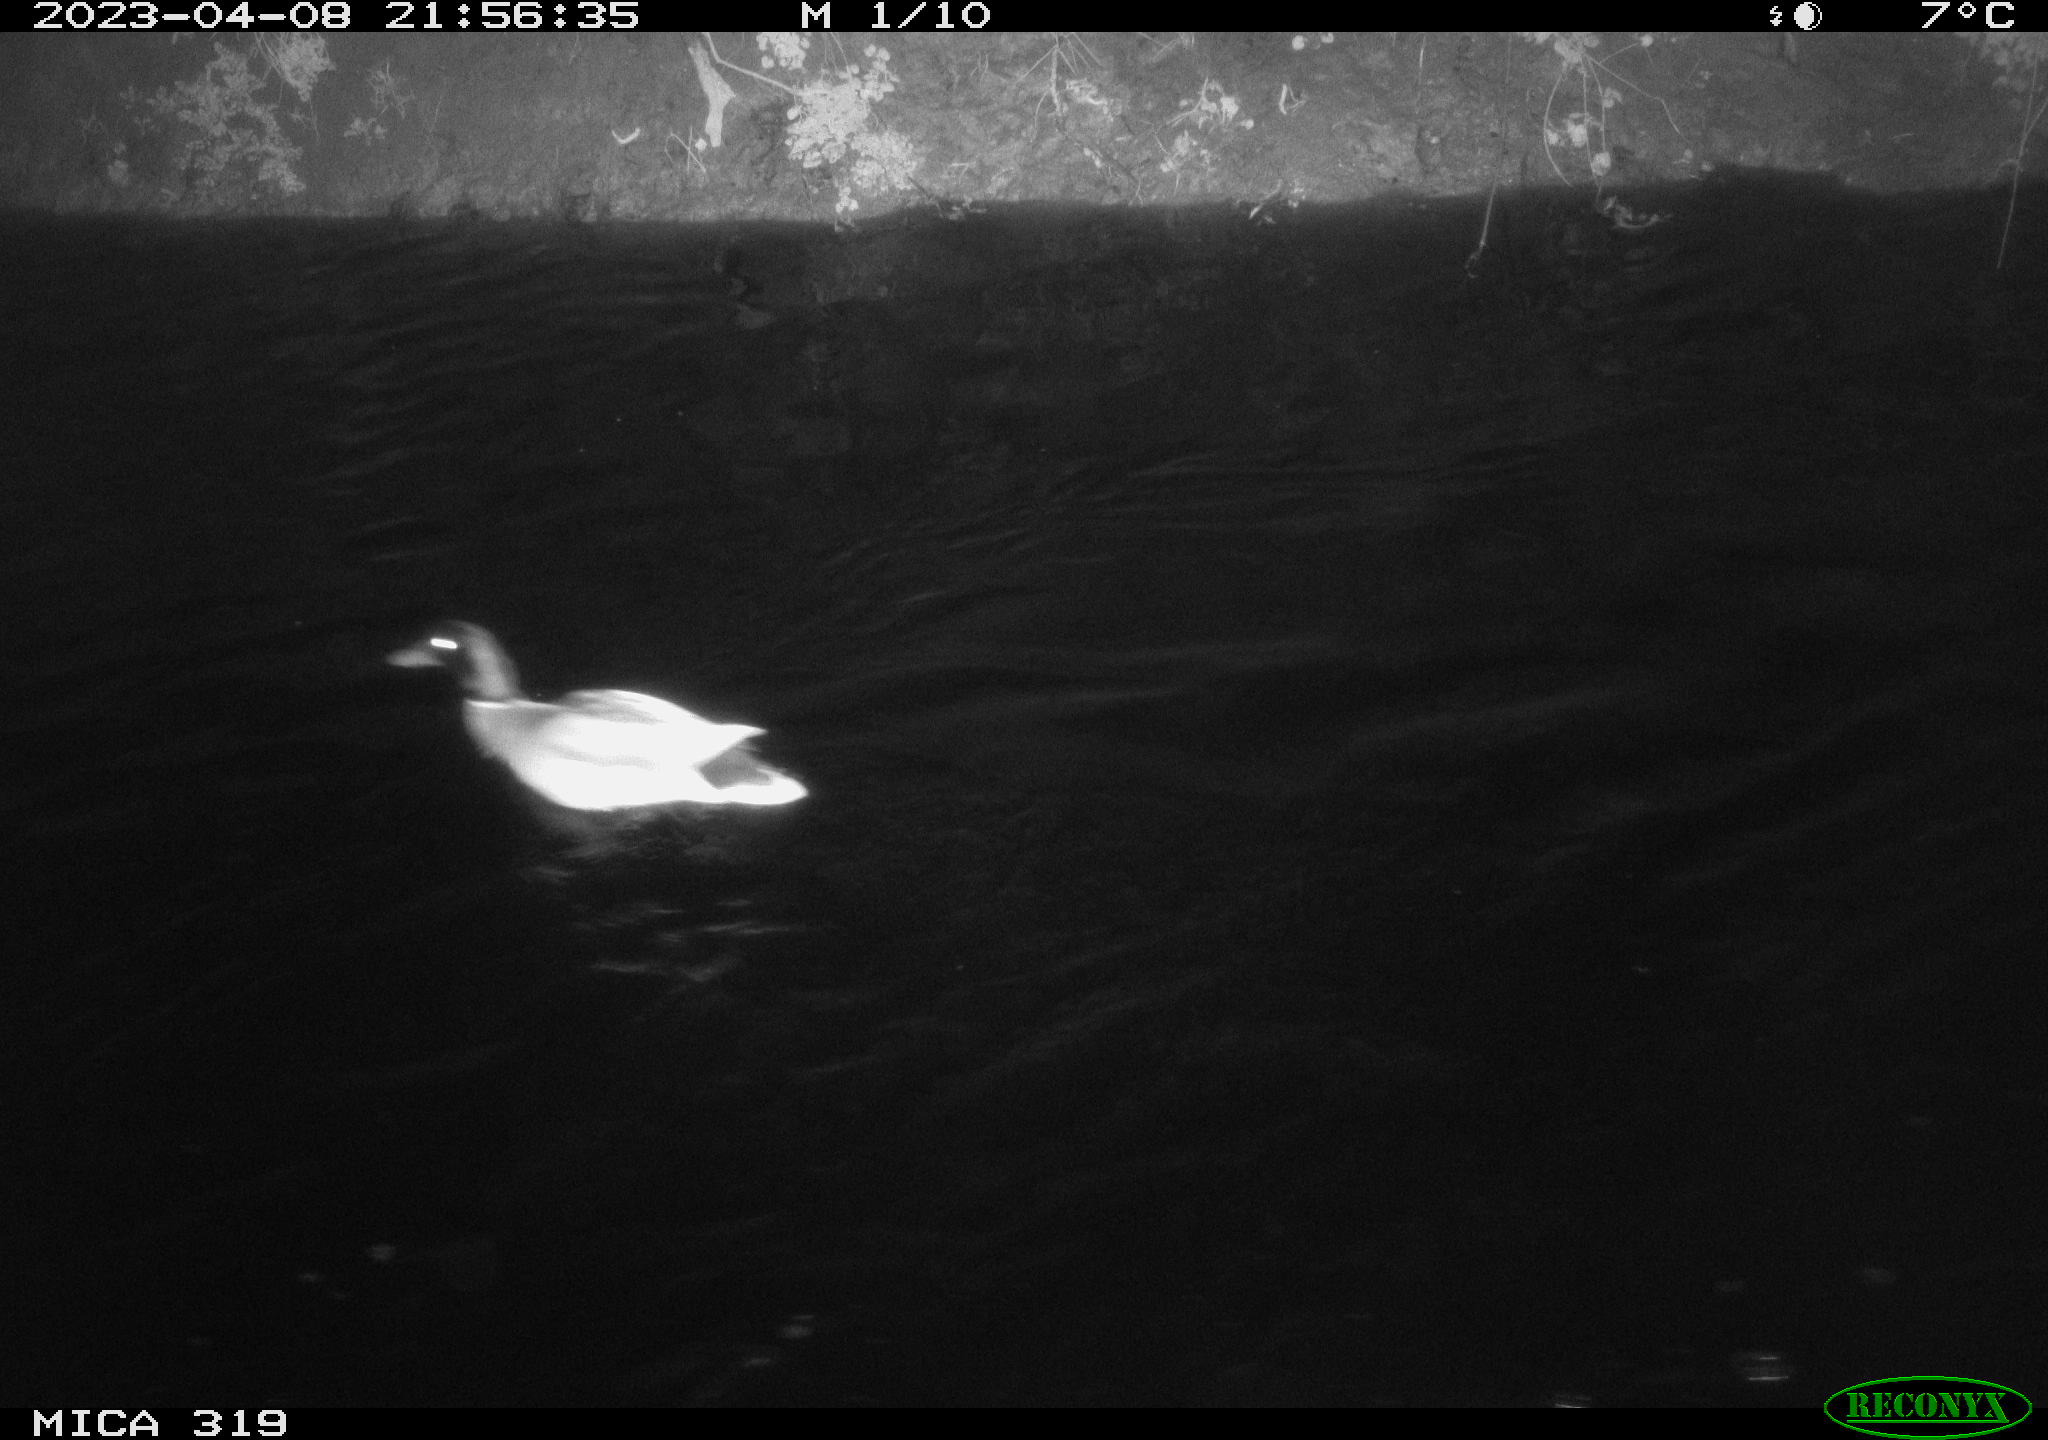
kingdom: Animalia
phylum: Chordata
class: Aves
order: Anseriformes
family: Anatidae
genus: Anas
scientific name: Anas
